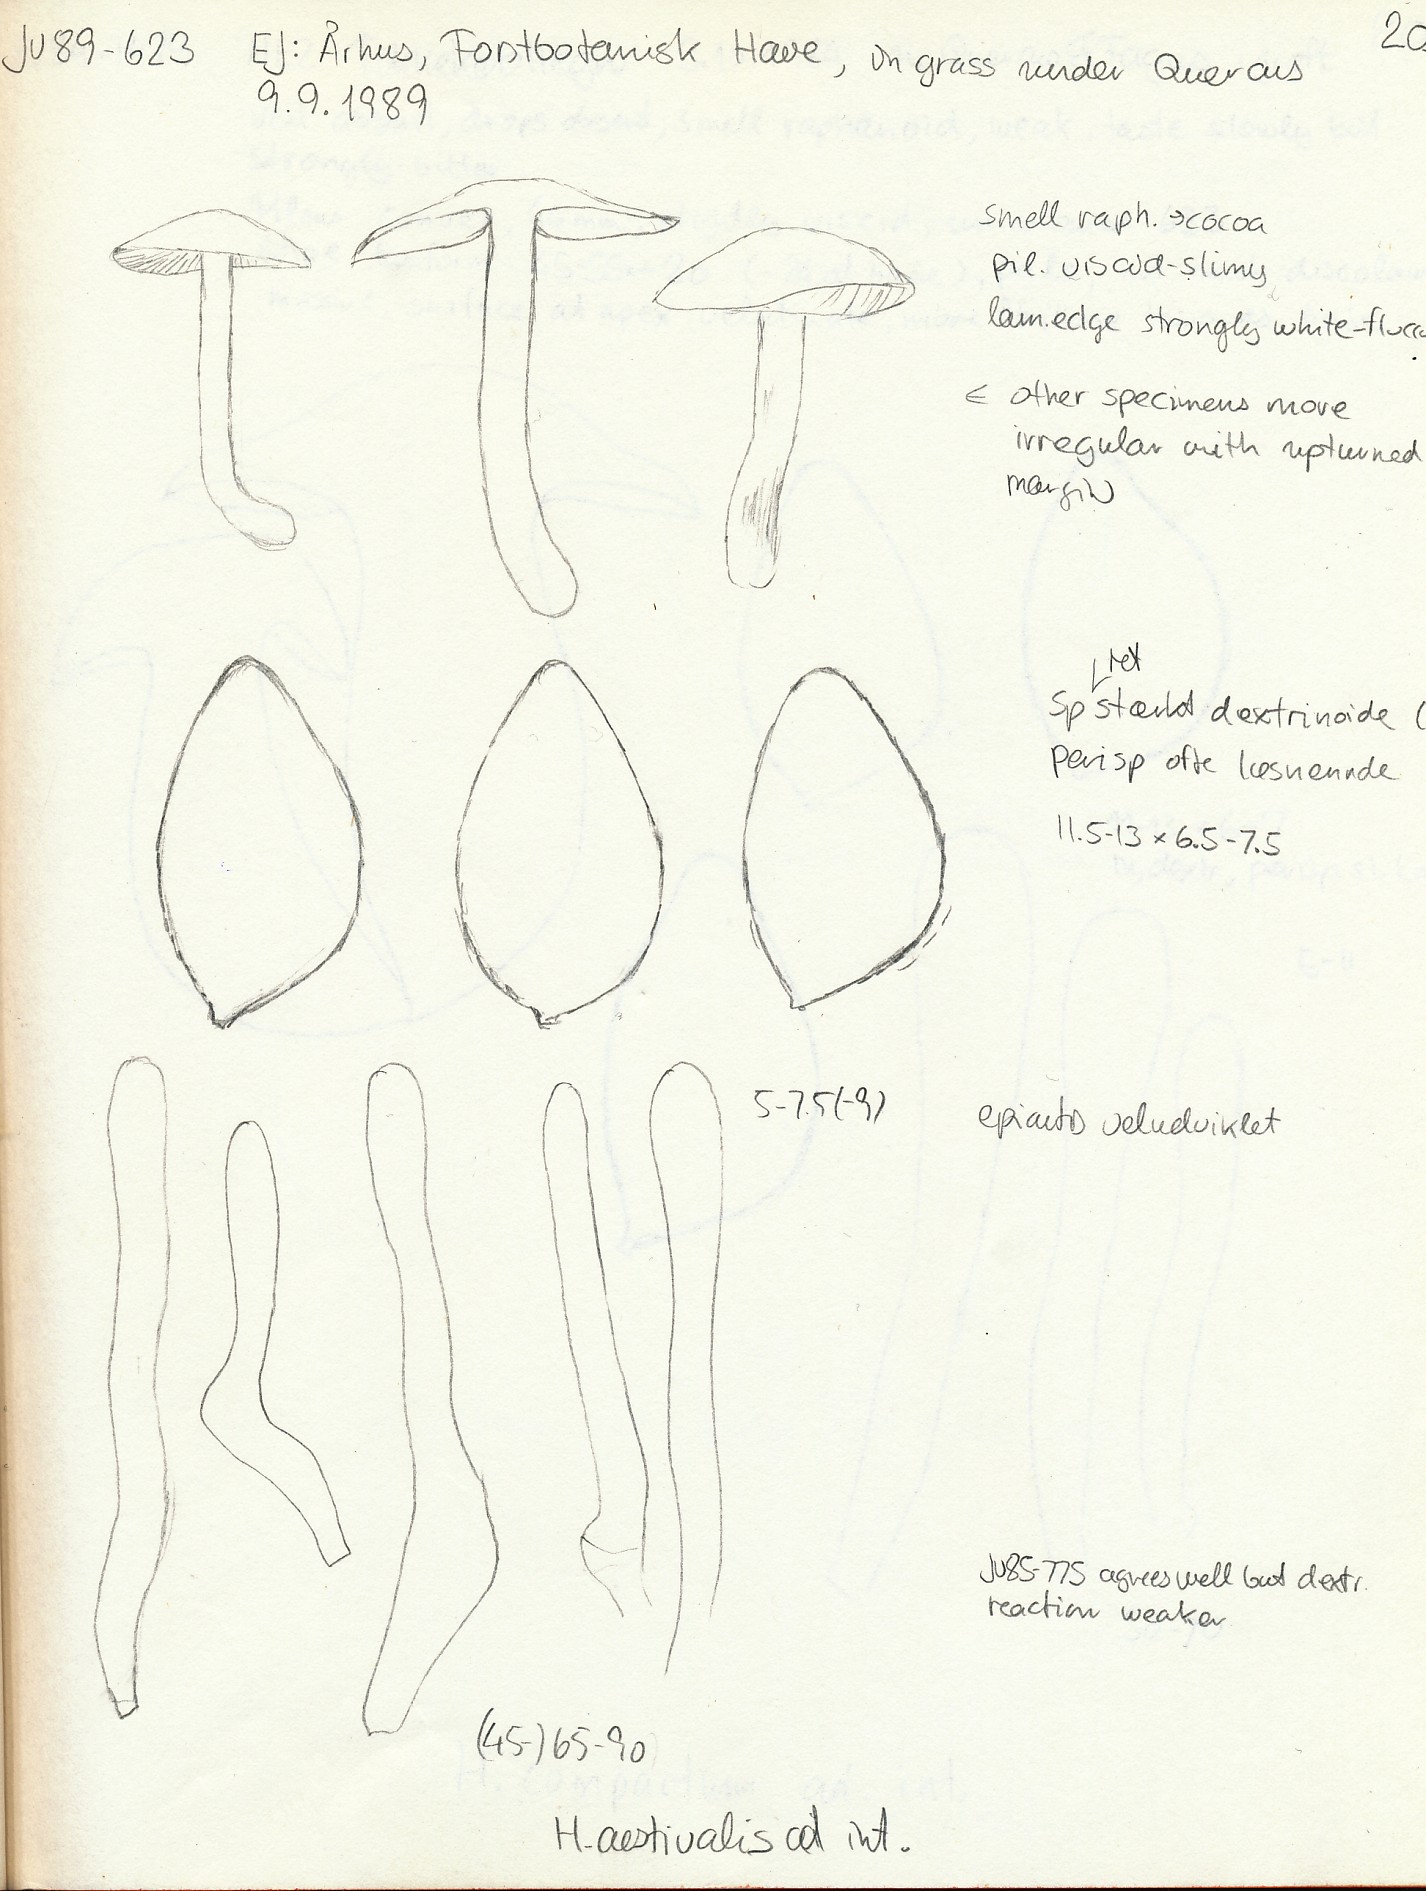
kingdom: Fungi
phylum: Basidiomycota
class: Agaricomycetes
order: Agaricales
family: Hymenogastraceae
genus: Hebeloma
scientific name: Hebeloma aestivale
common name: sommer-tåreblad
